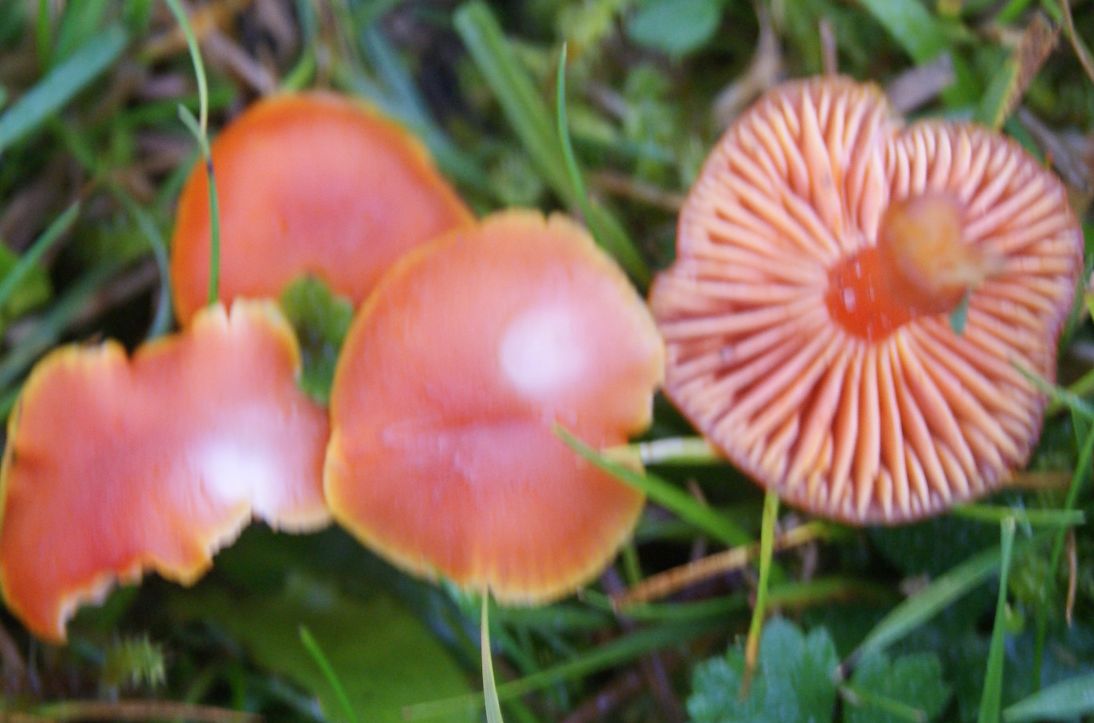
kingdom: Fungi
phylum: Basidiomycota
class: Agaricomycetes
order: Agaricales
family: Hygrophoraceae
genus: Hygrocybe
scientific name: Hygrocybe miniata
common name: mønje-vokshat
